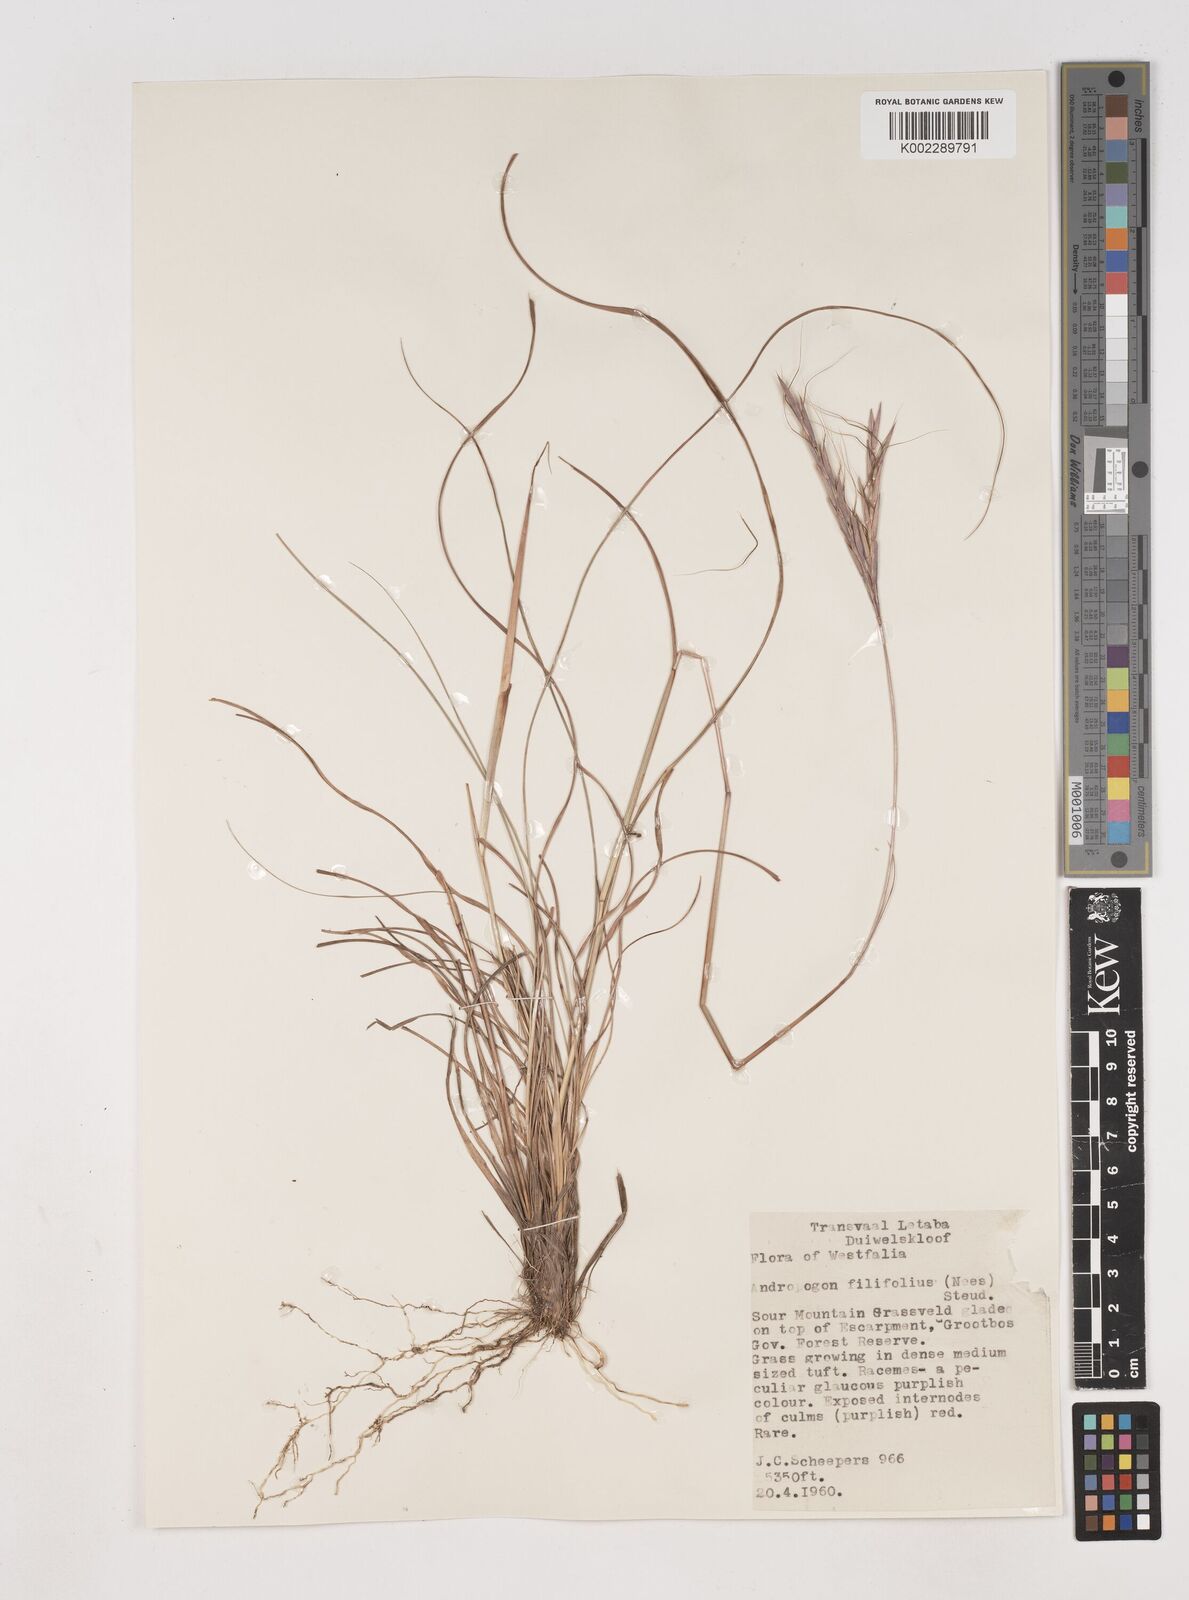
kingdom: Plantae
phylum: Tracheophyta
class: Liliopsida
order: Poales
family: Poaceae
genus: Diheteropogon
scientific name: Diheteropogon filifolius
